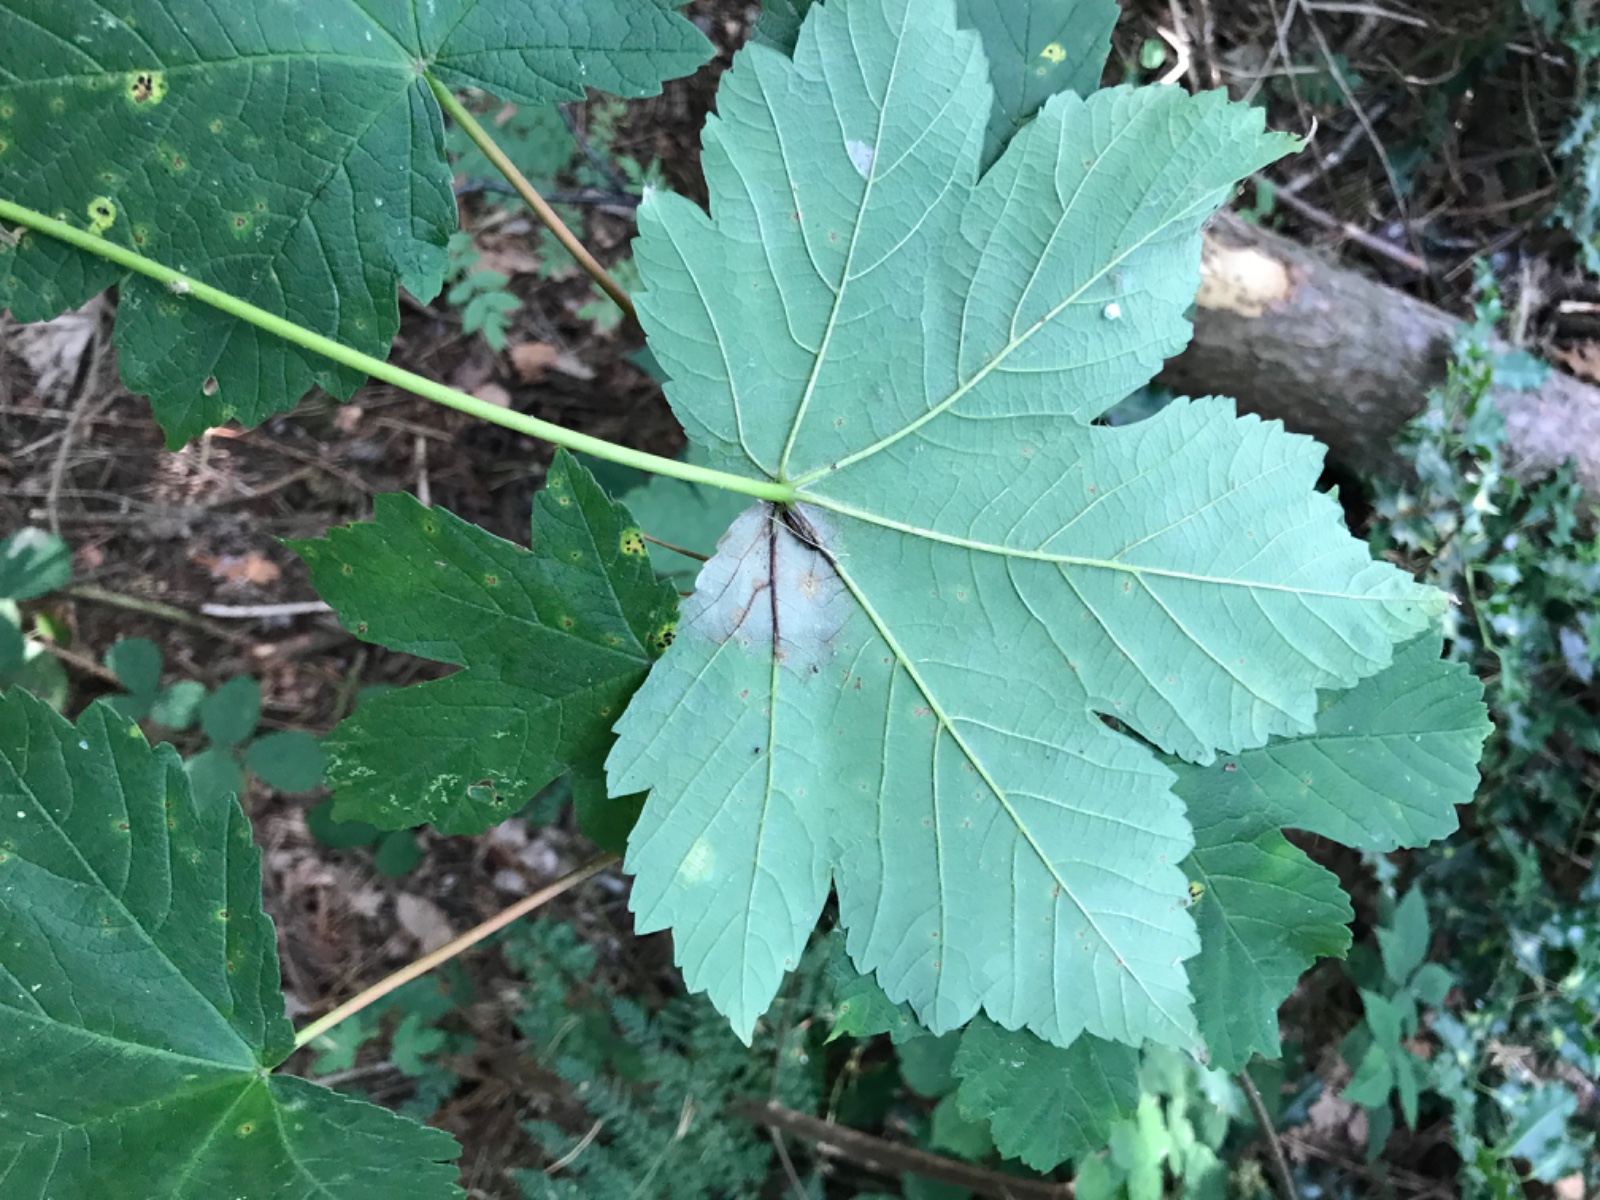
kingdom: Fungi
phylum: Ascomycota
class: Sordariomycetes
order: Diaporthales
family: Gnomoniaceae
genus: Pleuroceras
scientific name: Pleuroceras pseudoplatani
